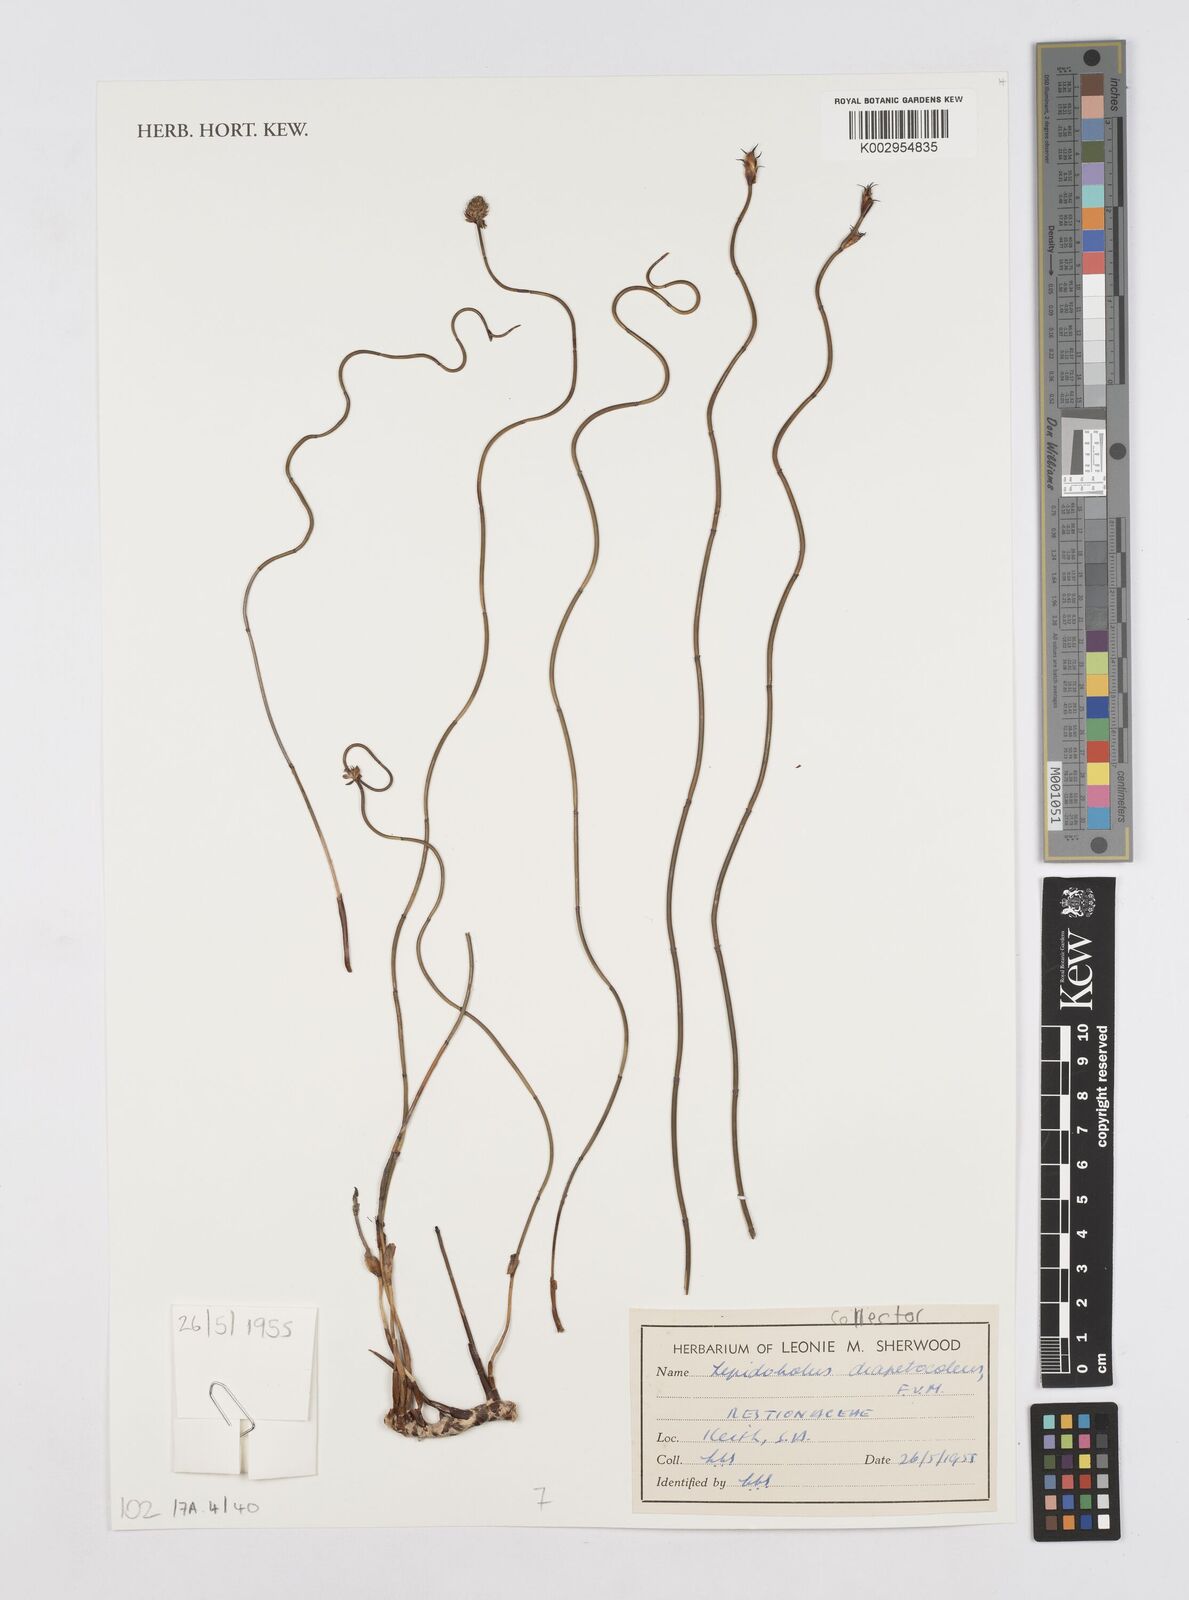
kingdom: Plantae
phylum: Tracheophyta
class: Liliopsida
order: Poales
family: Restionaceae
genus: Lepidobolus
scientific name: Lepidobolus drapetocoleus
